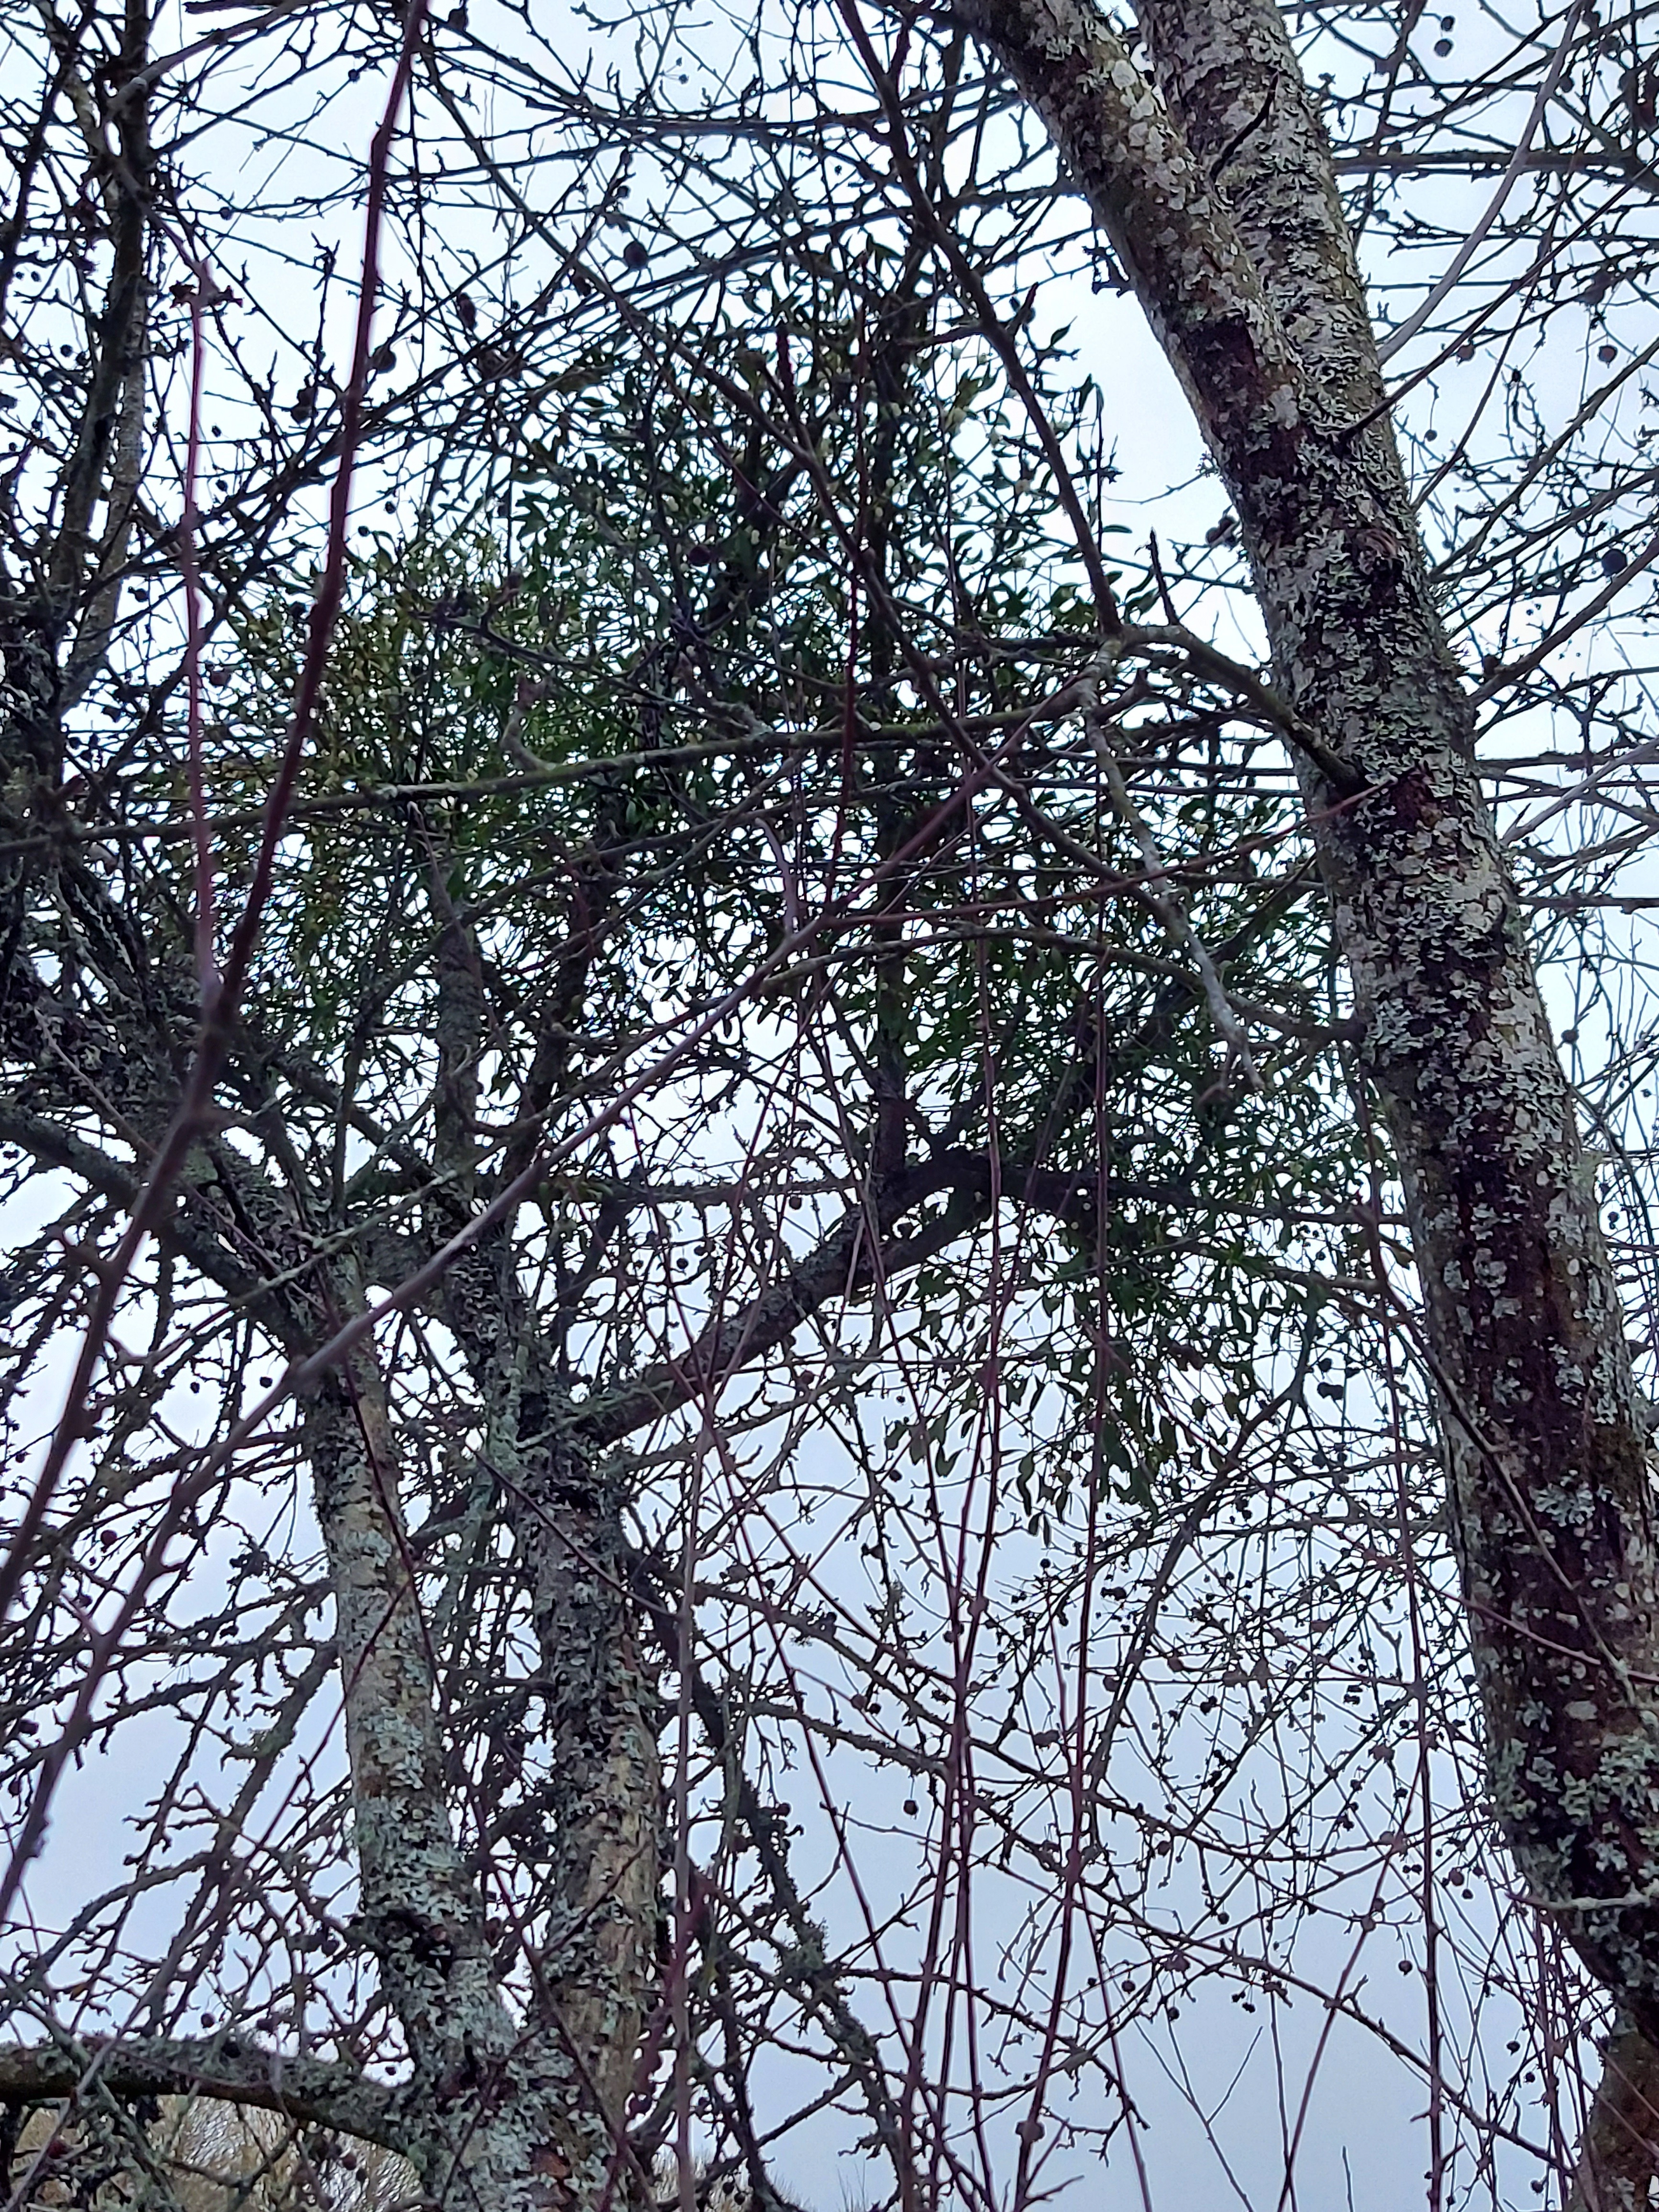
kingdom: Plantae
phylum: Tracheophyta
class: Magnoliopsida
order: Santalales
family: Viscaceae
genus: Viscum
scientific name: Viscum album
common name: Mistletoe
